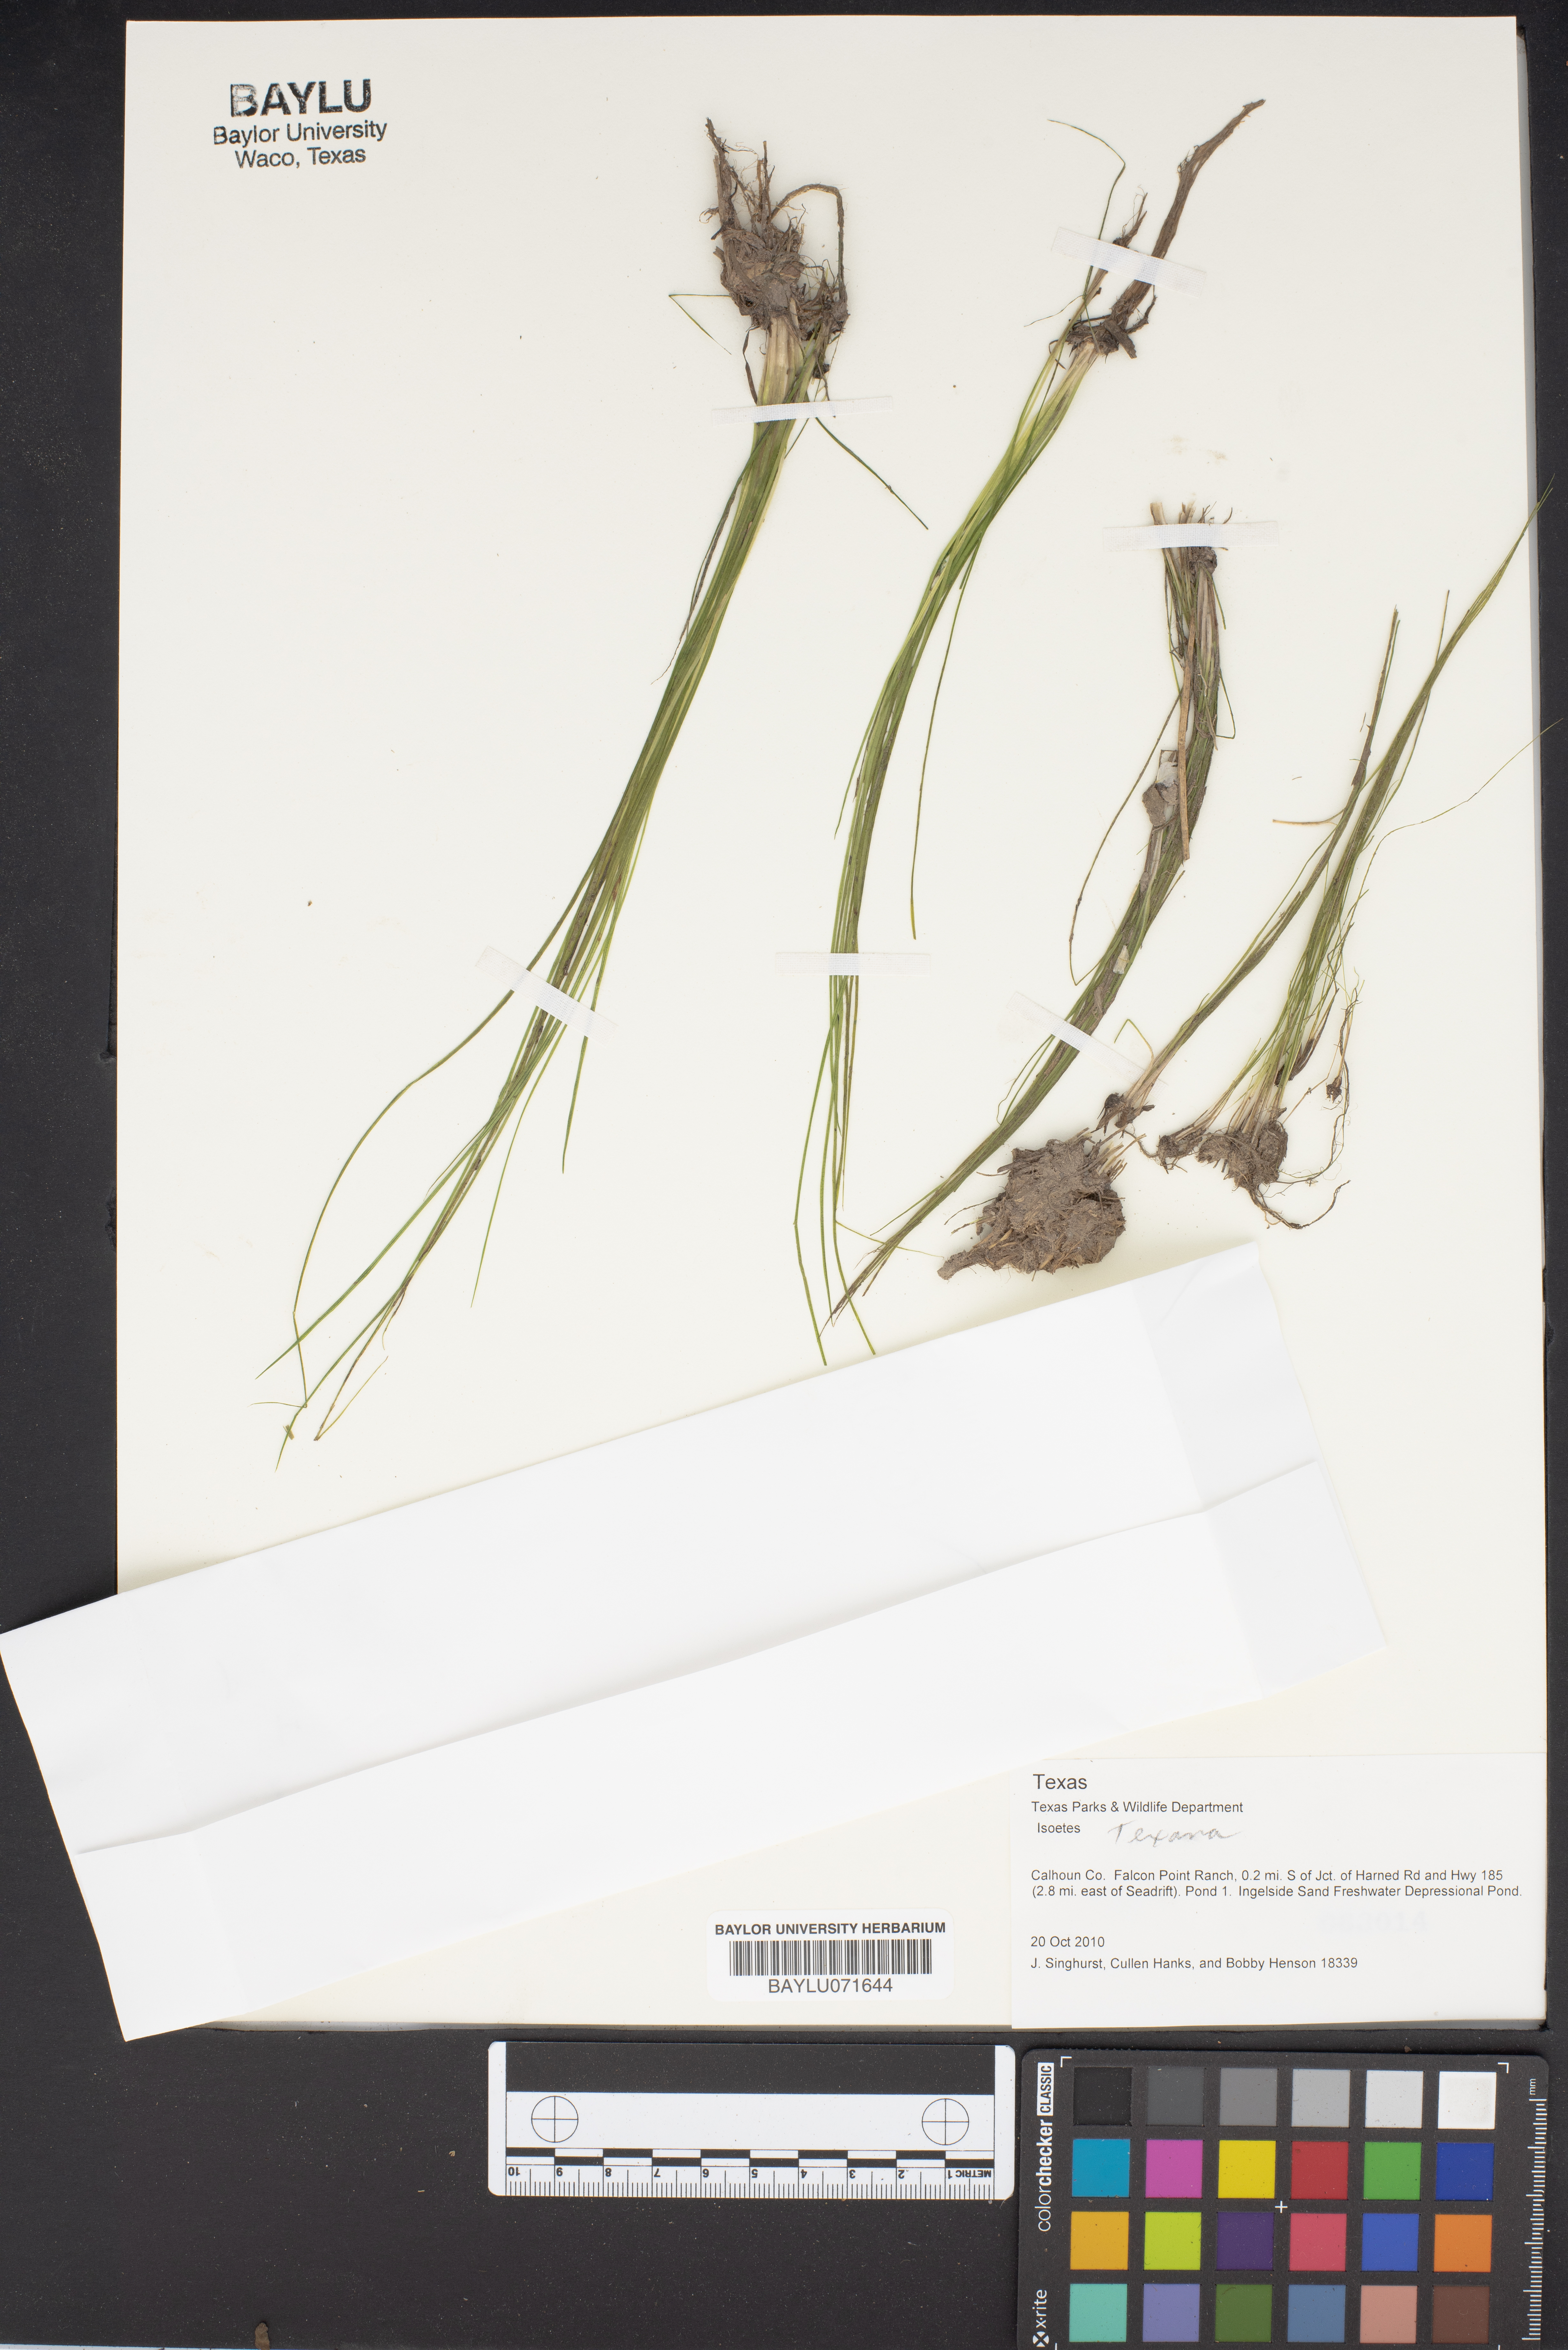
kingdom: Plantae
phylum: Tracheophyta
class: Lycopodiopsida
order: Isoetales
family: Isoetaceae
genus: Isoetes
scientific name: Isoetes
